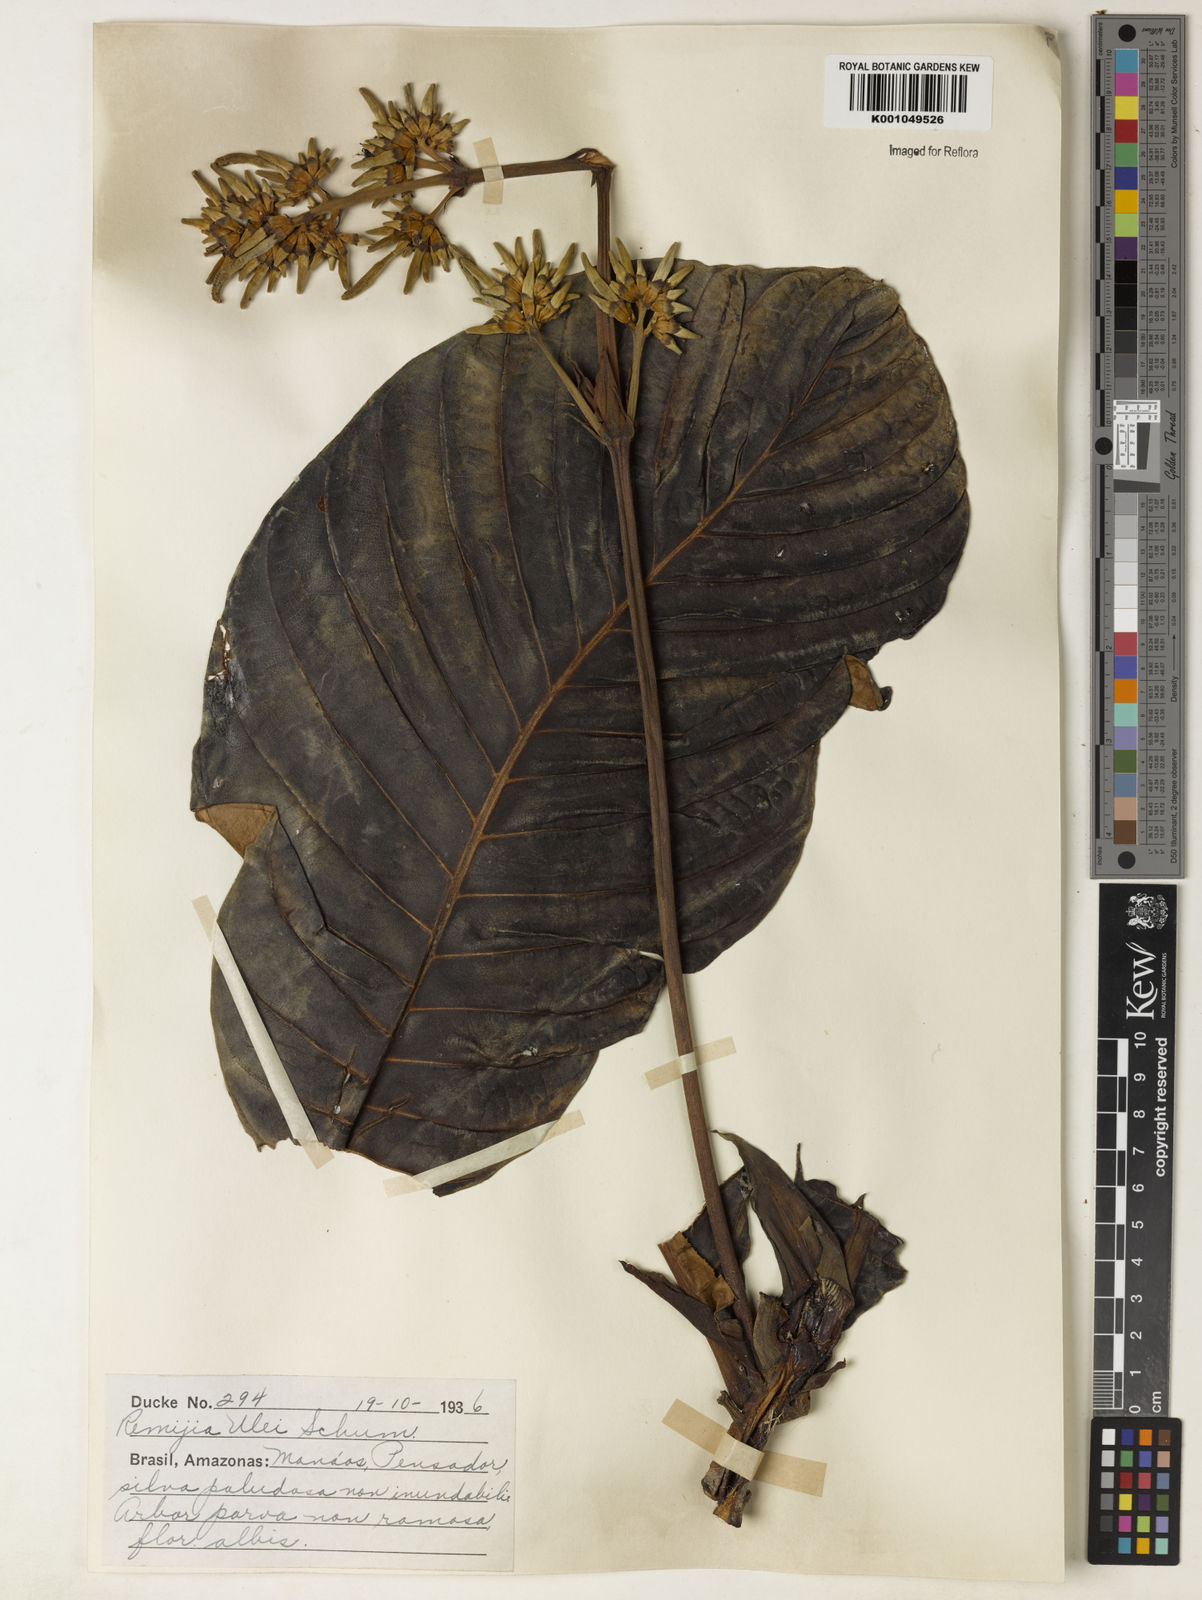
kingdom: Plantae
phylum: Tracheophyta
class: Magnoliopsida
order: Gentianales
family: Rubiaceae
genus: Remijia
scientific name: Remijia ulei
